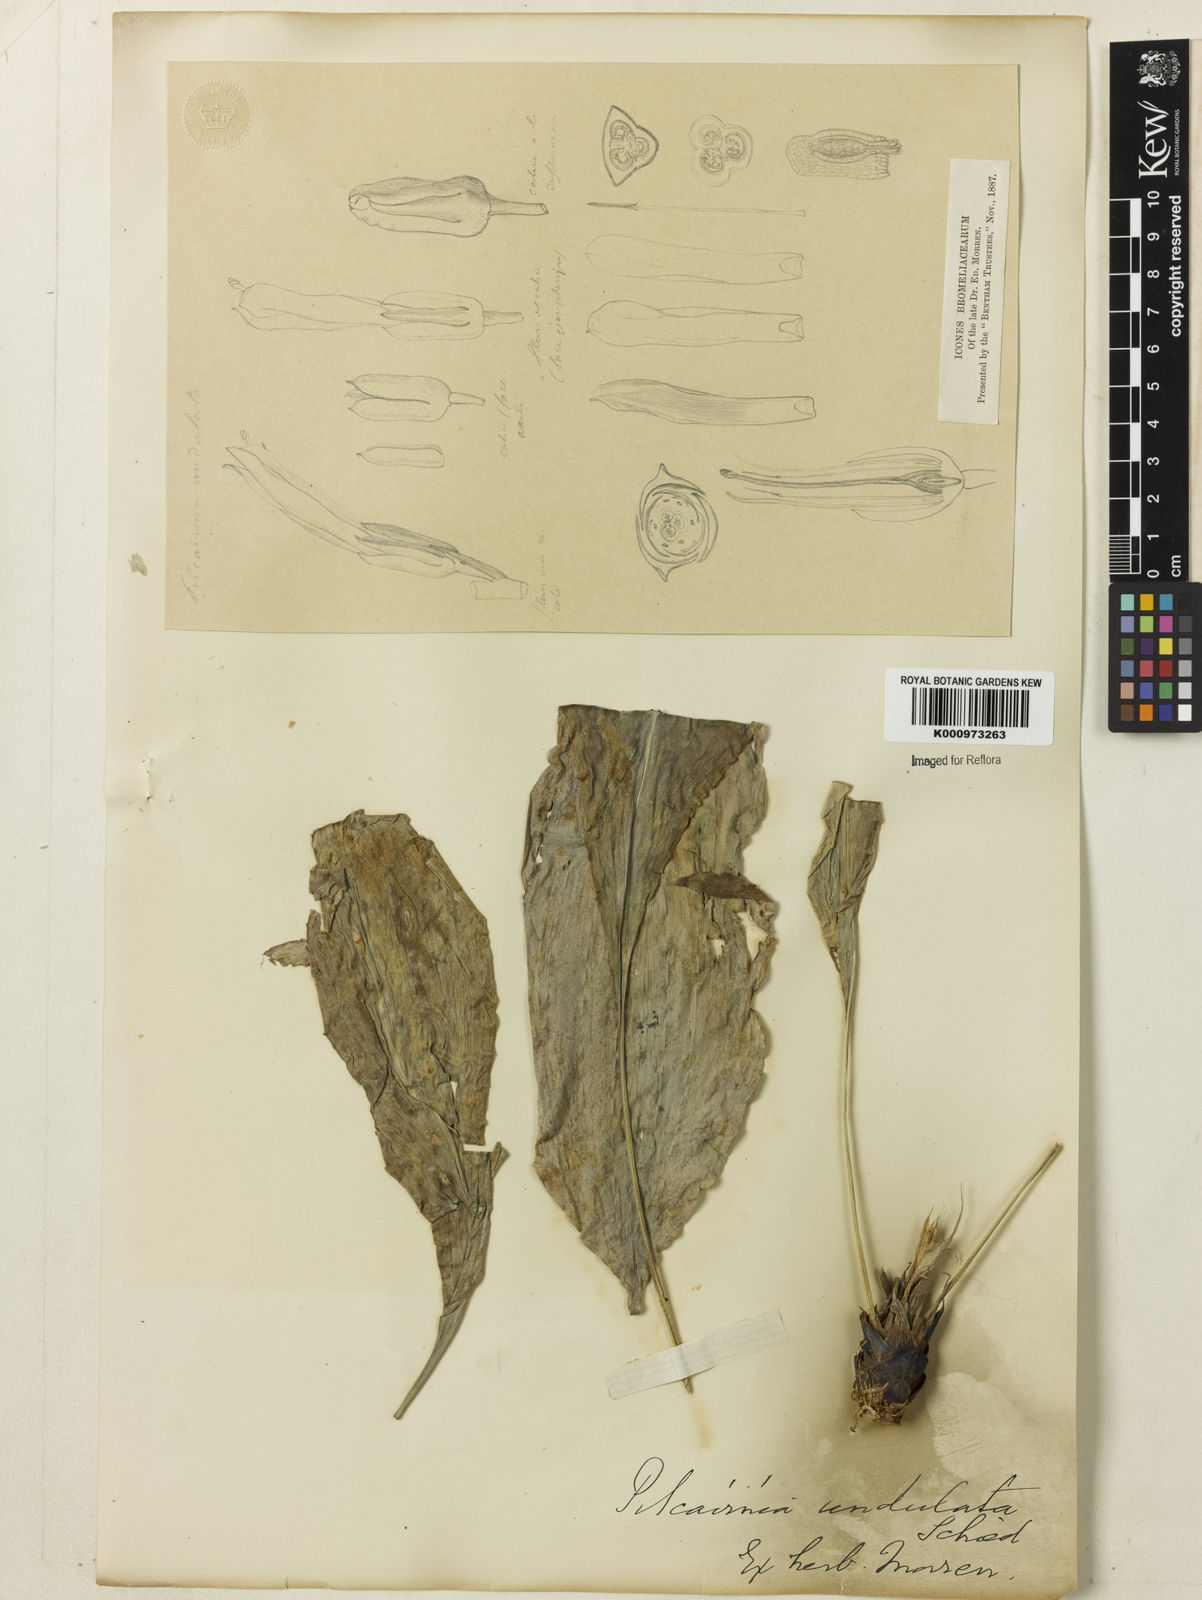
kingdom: Plantae
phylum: Tracheophyta
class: Liliopsida
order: Poales
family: Bromeliaceae
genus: Pitcairnia
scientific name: Pitcairnia undulata
